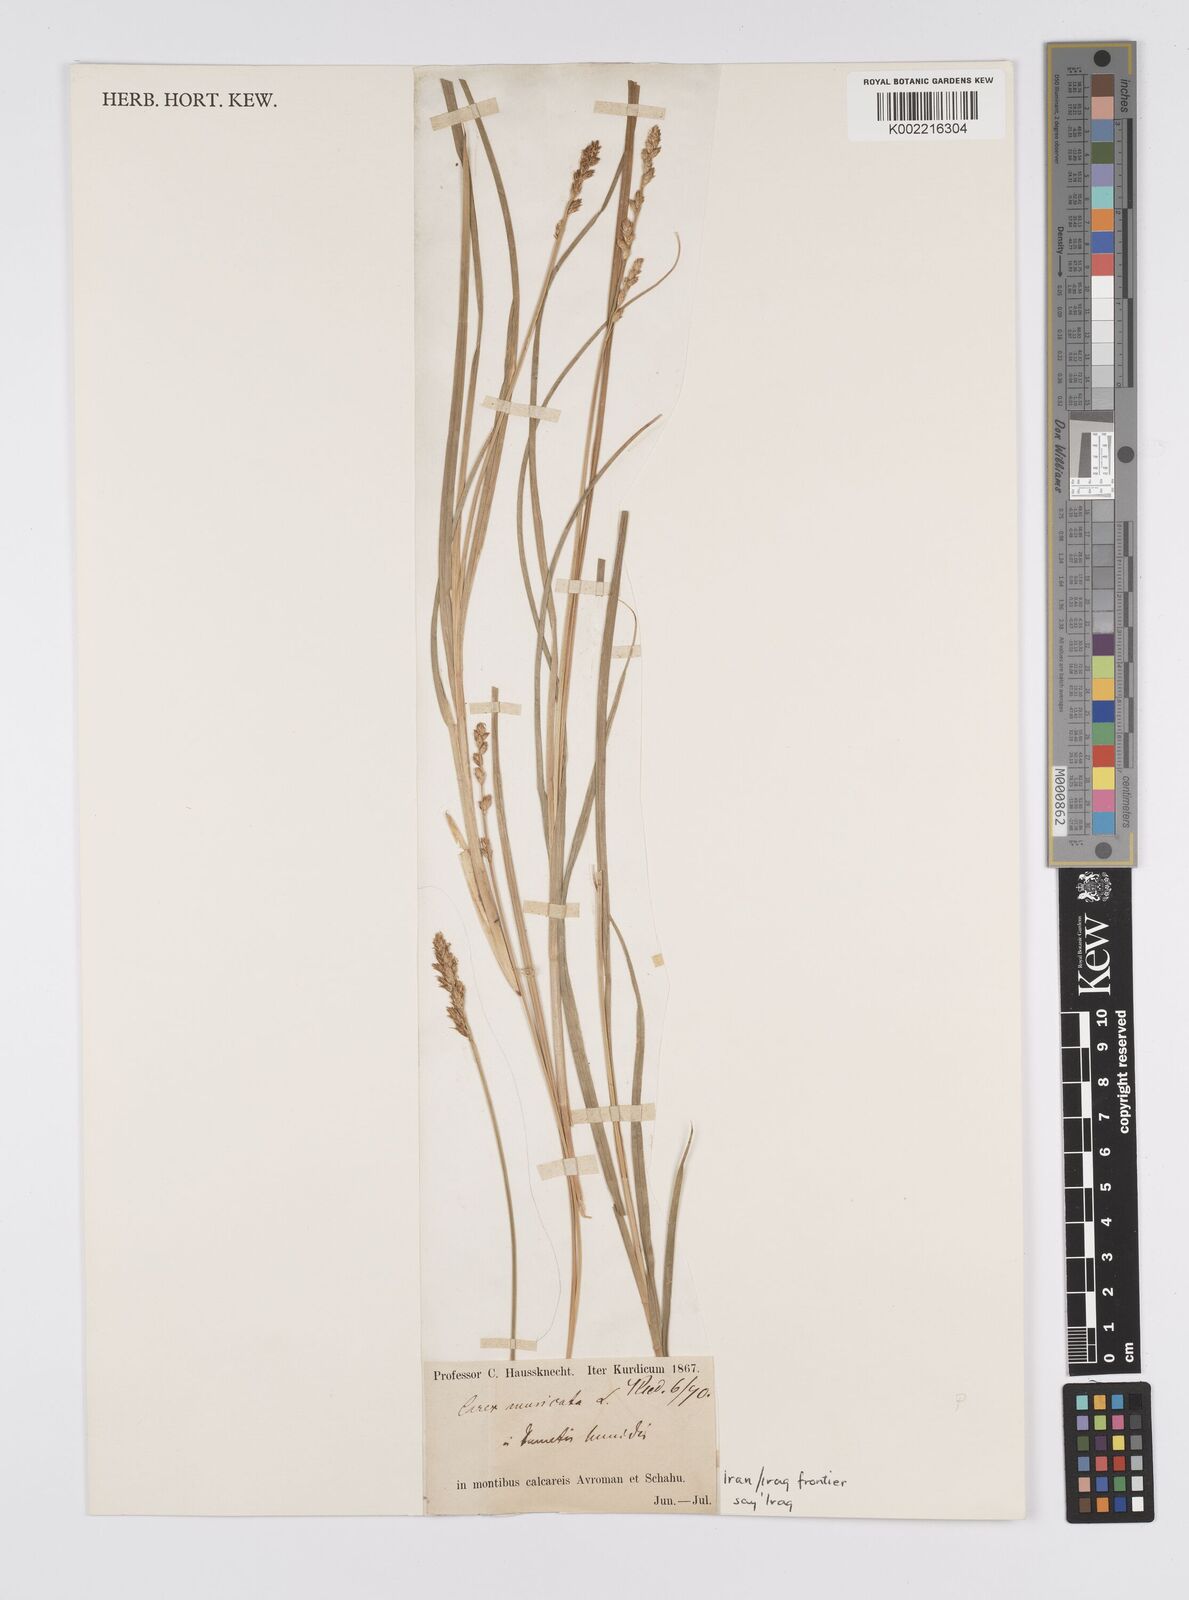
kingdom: Plantae
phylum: Tracheophyta
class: Liliopsida
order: Poales
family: Cyperaceae
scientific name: Cyperaceae
